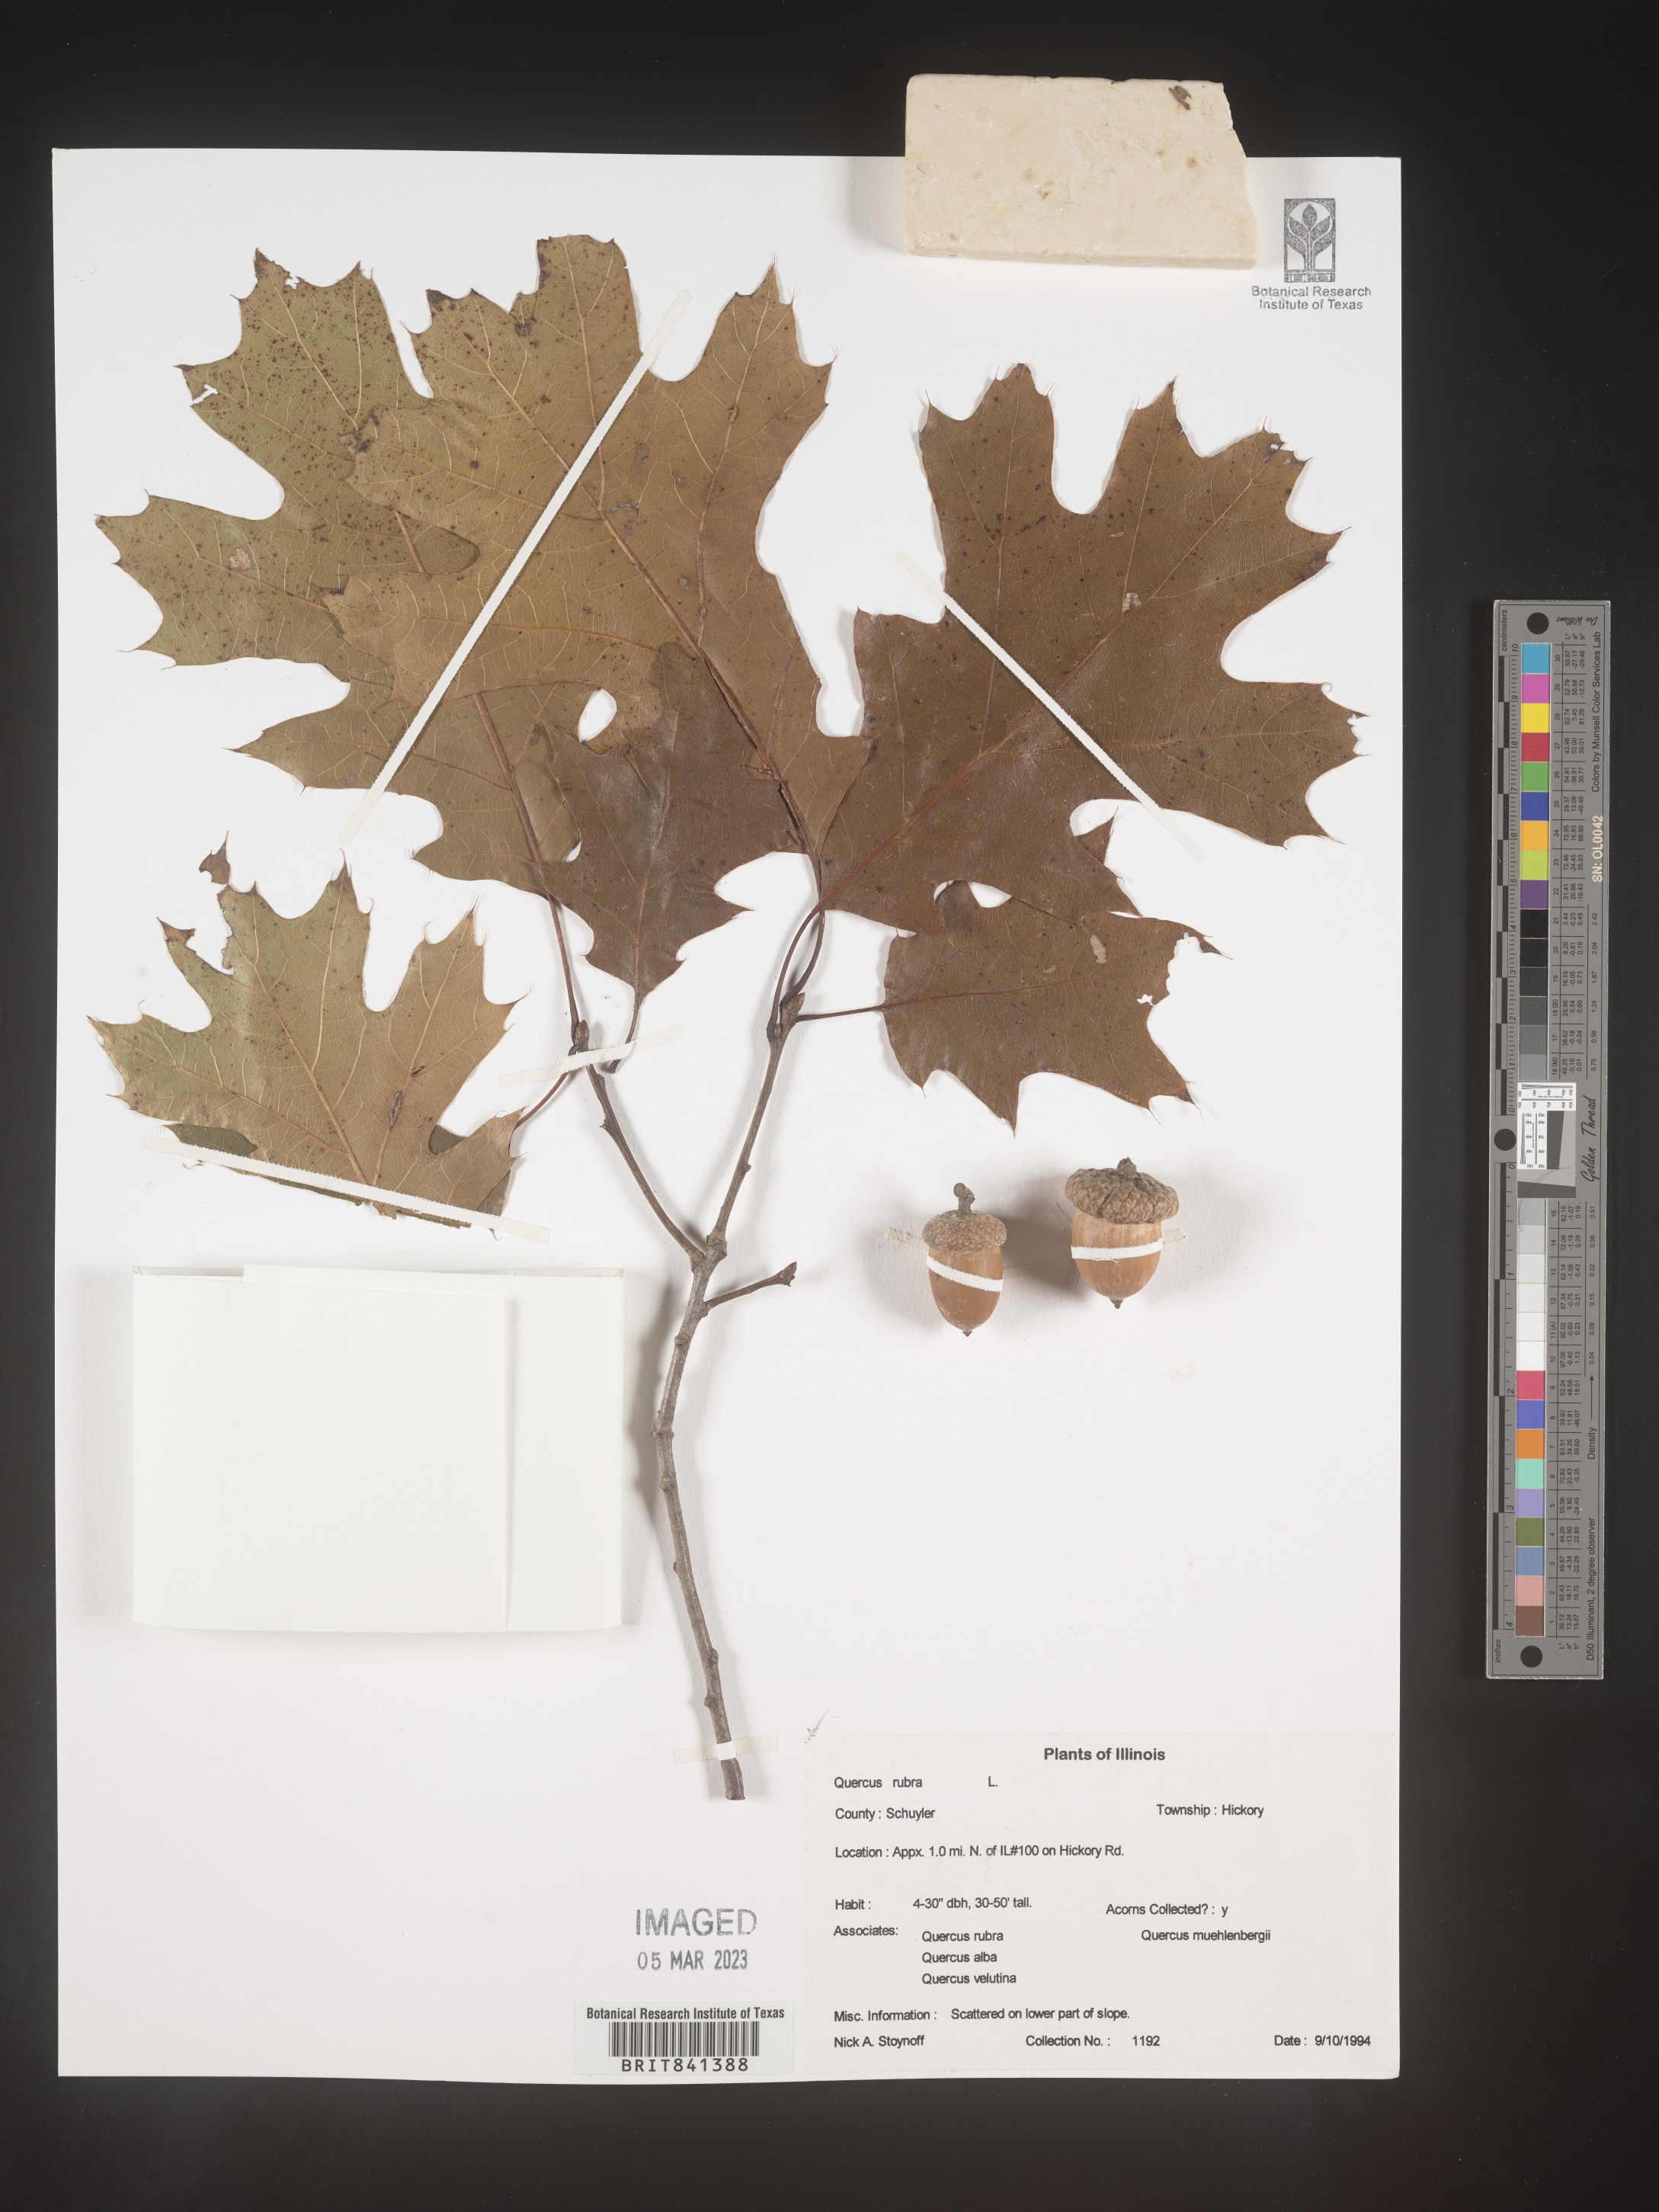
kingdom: Plantae
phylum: Tracheophyta
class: Magnoliopsida
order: Fagales
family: Fagaceae
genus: Quercus
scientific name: Quercus rubra
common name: Red oak
